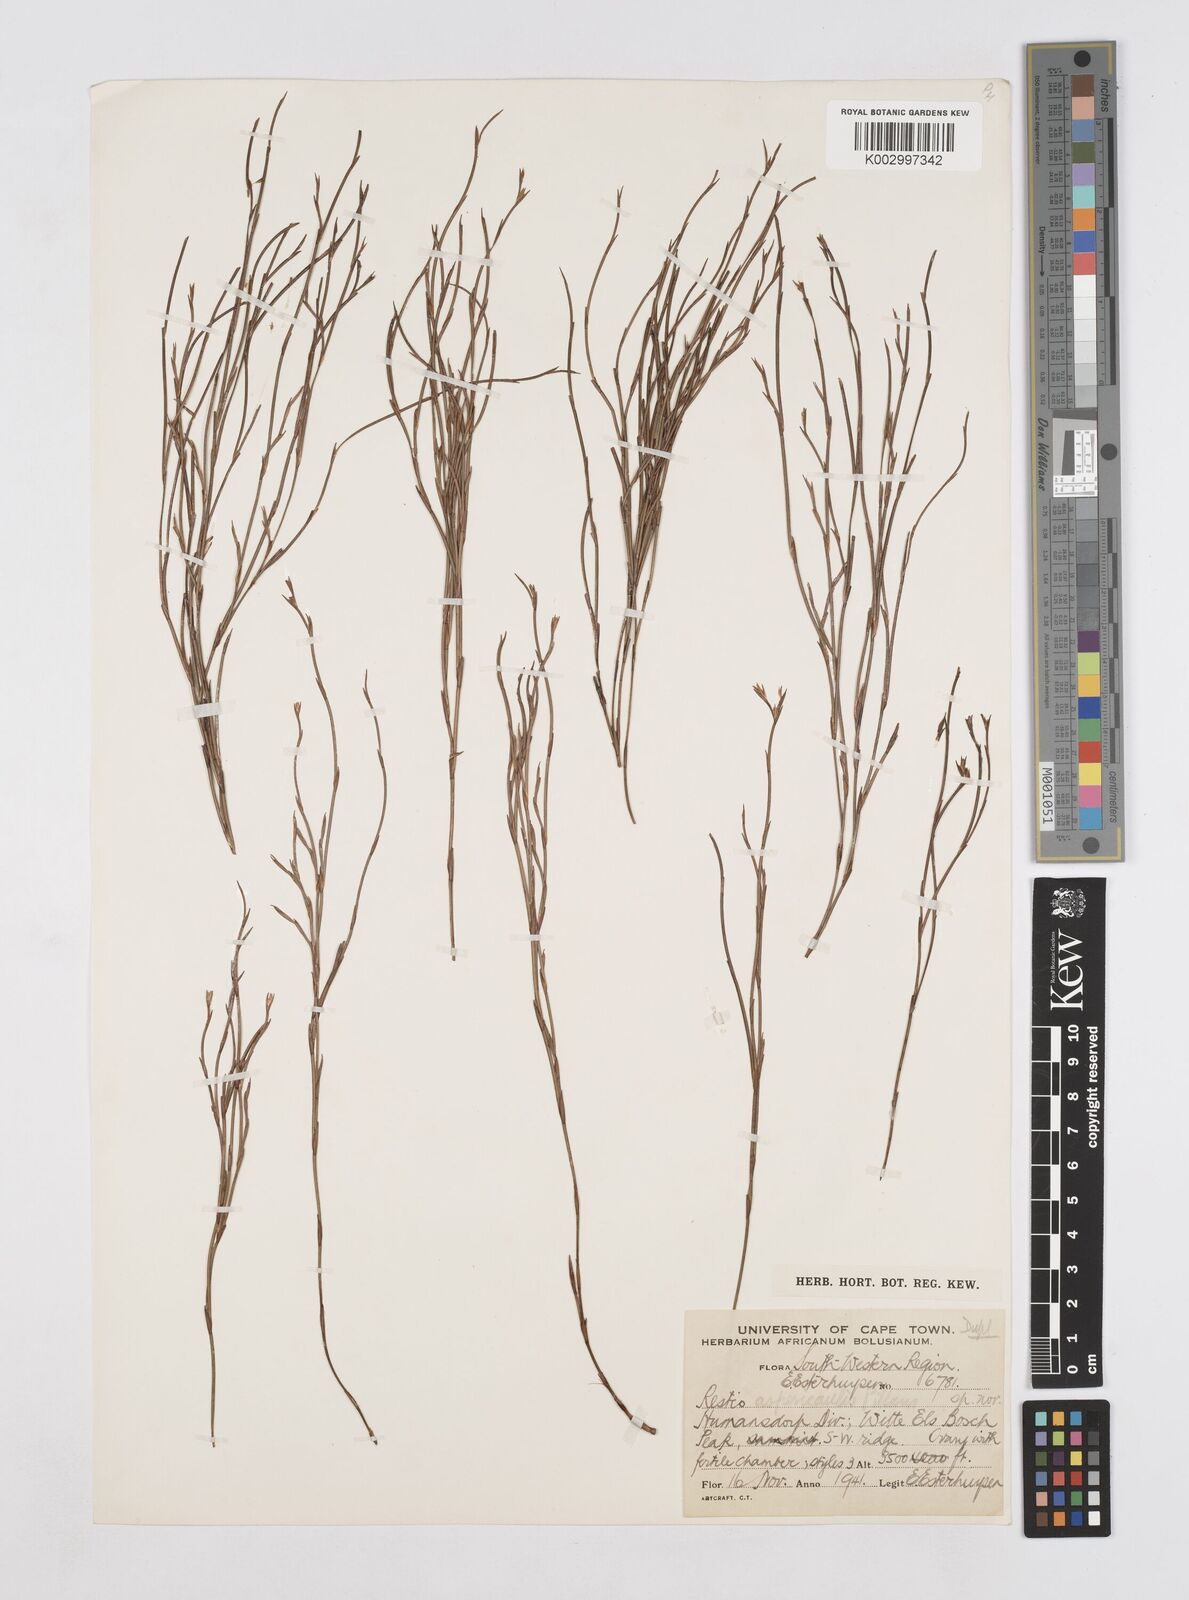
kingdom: Plantae
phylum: Tracheophyta
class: Liliopsida
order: Poales
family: Restionaceae
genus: Platycaulos
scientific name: Platycaulos anceps
